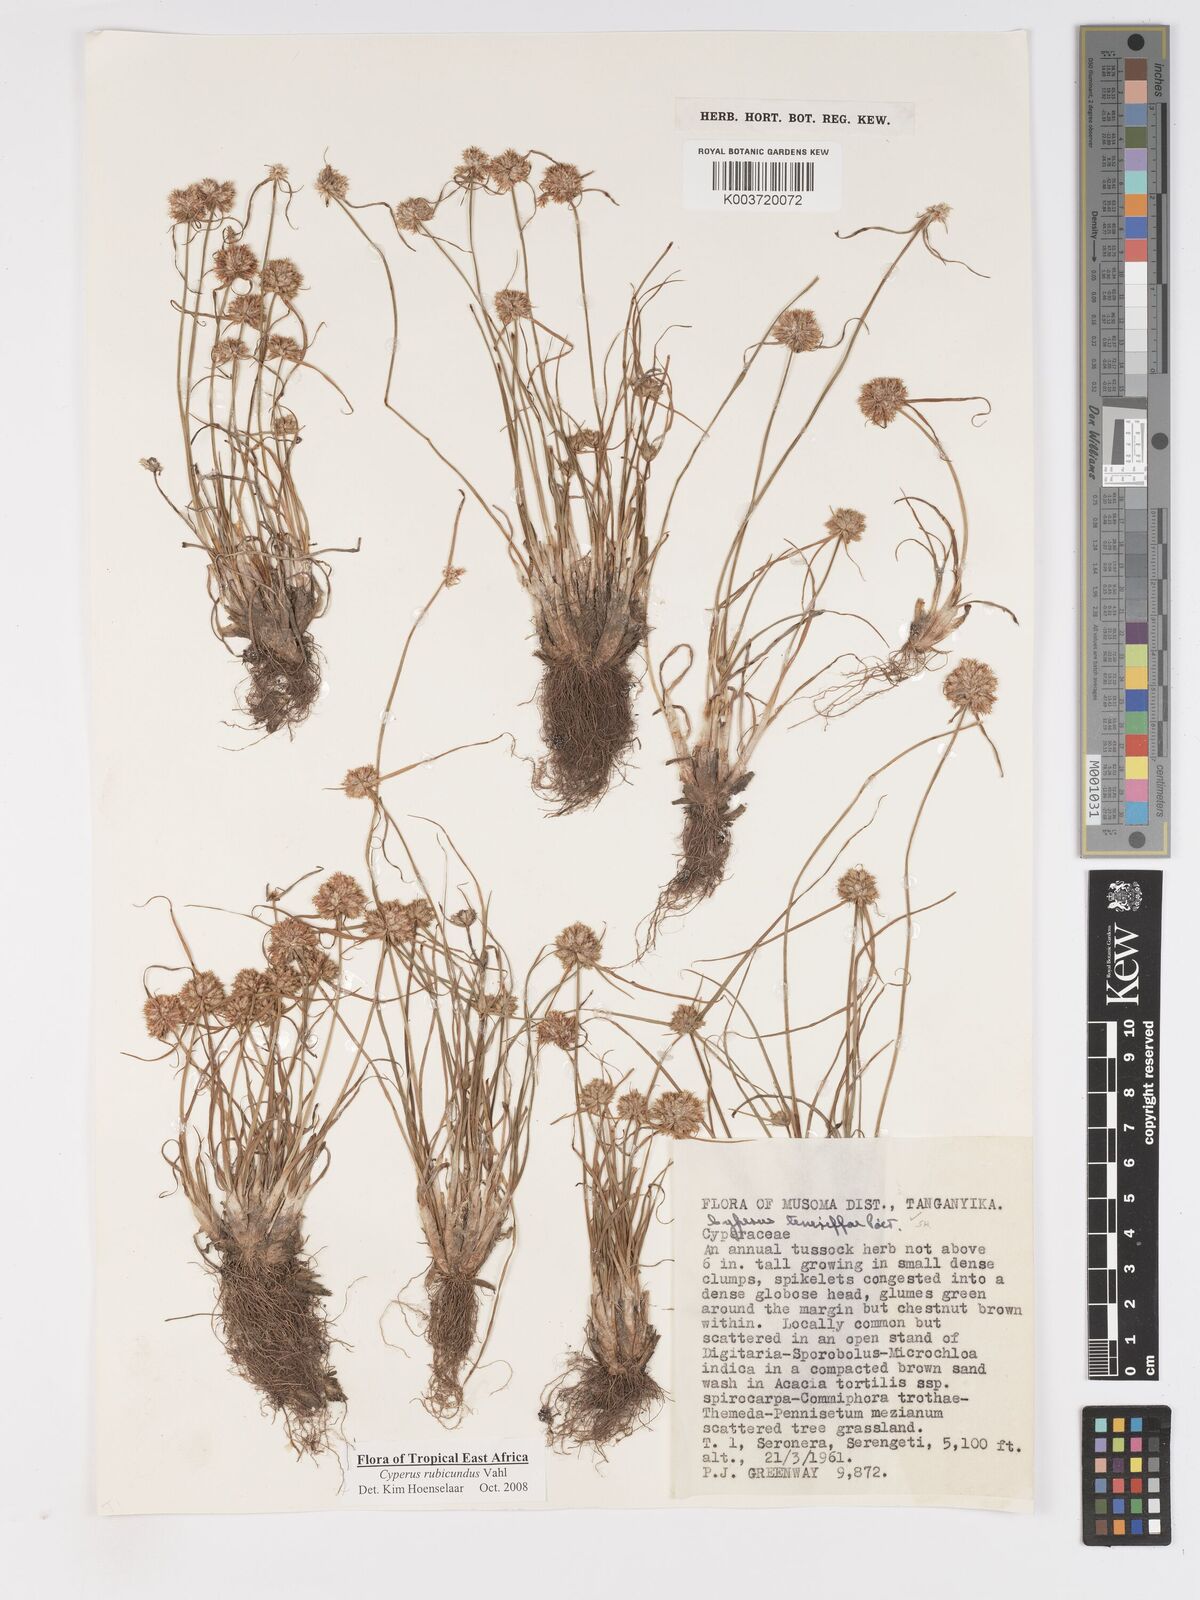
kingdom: Plantae
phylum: Tracheophyta
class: Liliopsida
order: Poales
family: Cyperaceae
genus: Cyperus
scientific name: Cyperus rubicundus
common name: Coco-grass
